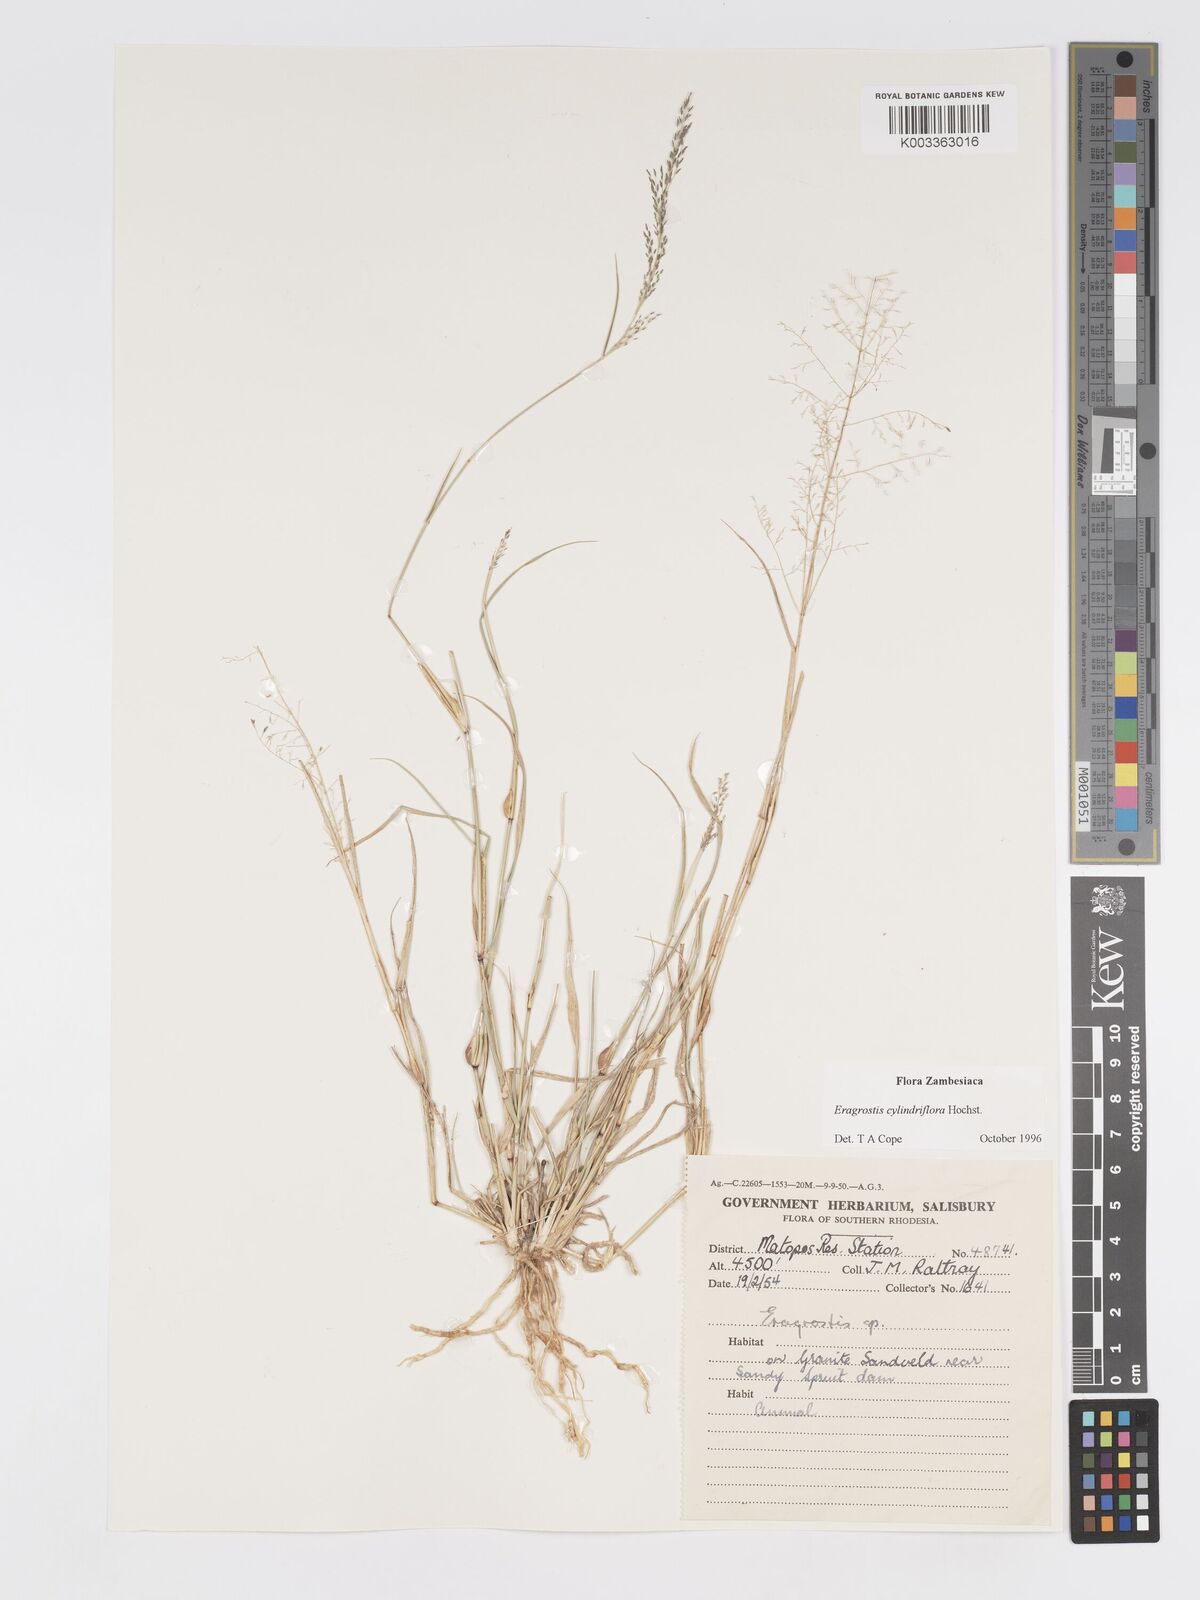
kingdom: Plantae
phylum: Tracheophyta
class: Liliopsida
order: Poales
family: Poaceae
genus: Eragrostis
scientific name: Eragrostis cylindriflora
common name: Cylinderflower lovegrass
